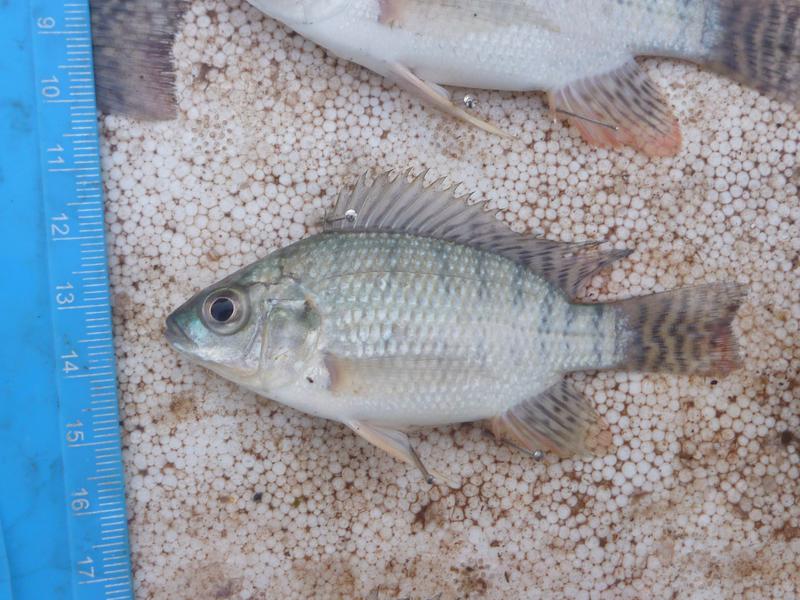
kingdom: Animalia
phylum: Chordata
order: Perciformes
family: Cichlidae
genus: Oreochromis
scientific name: Oreochromis niloticus
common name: Nile tilapia
